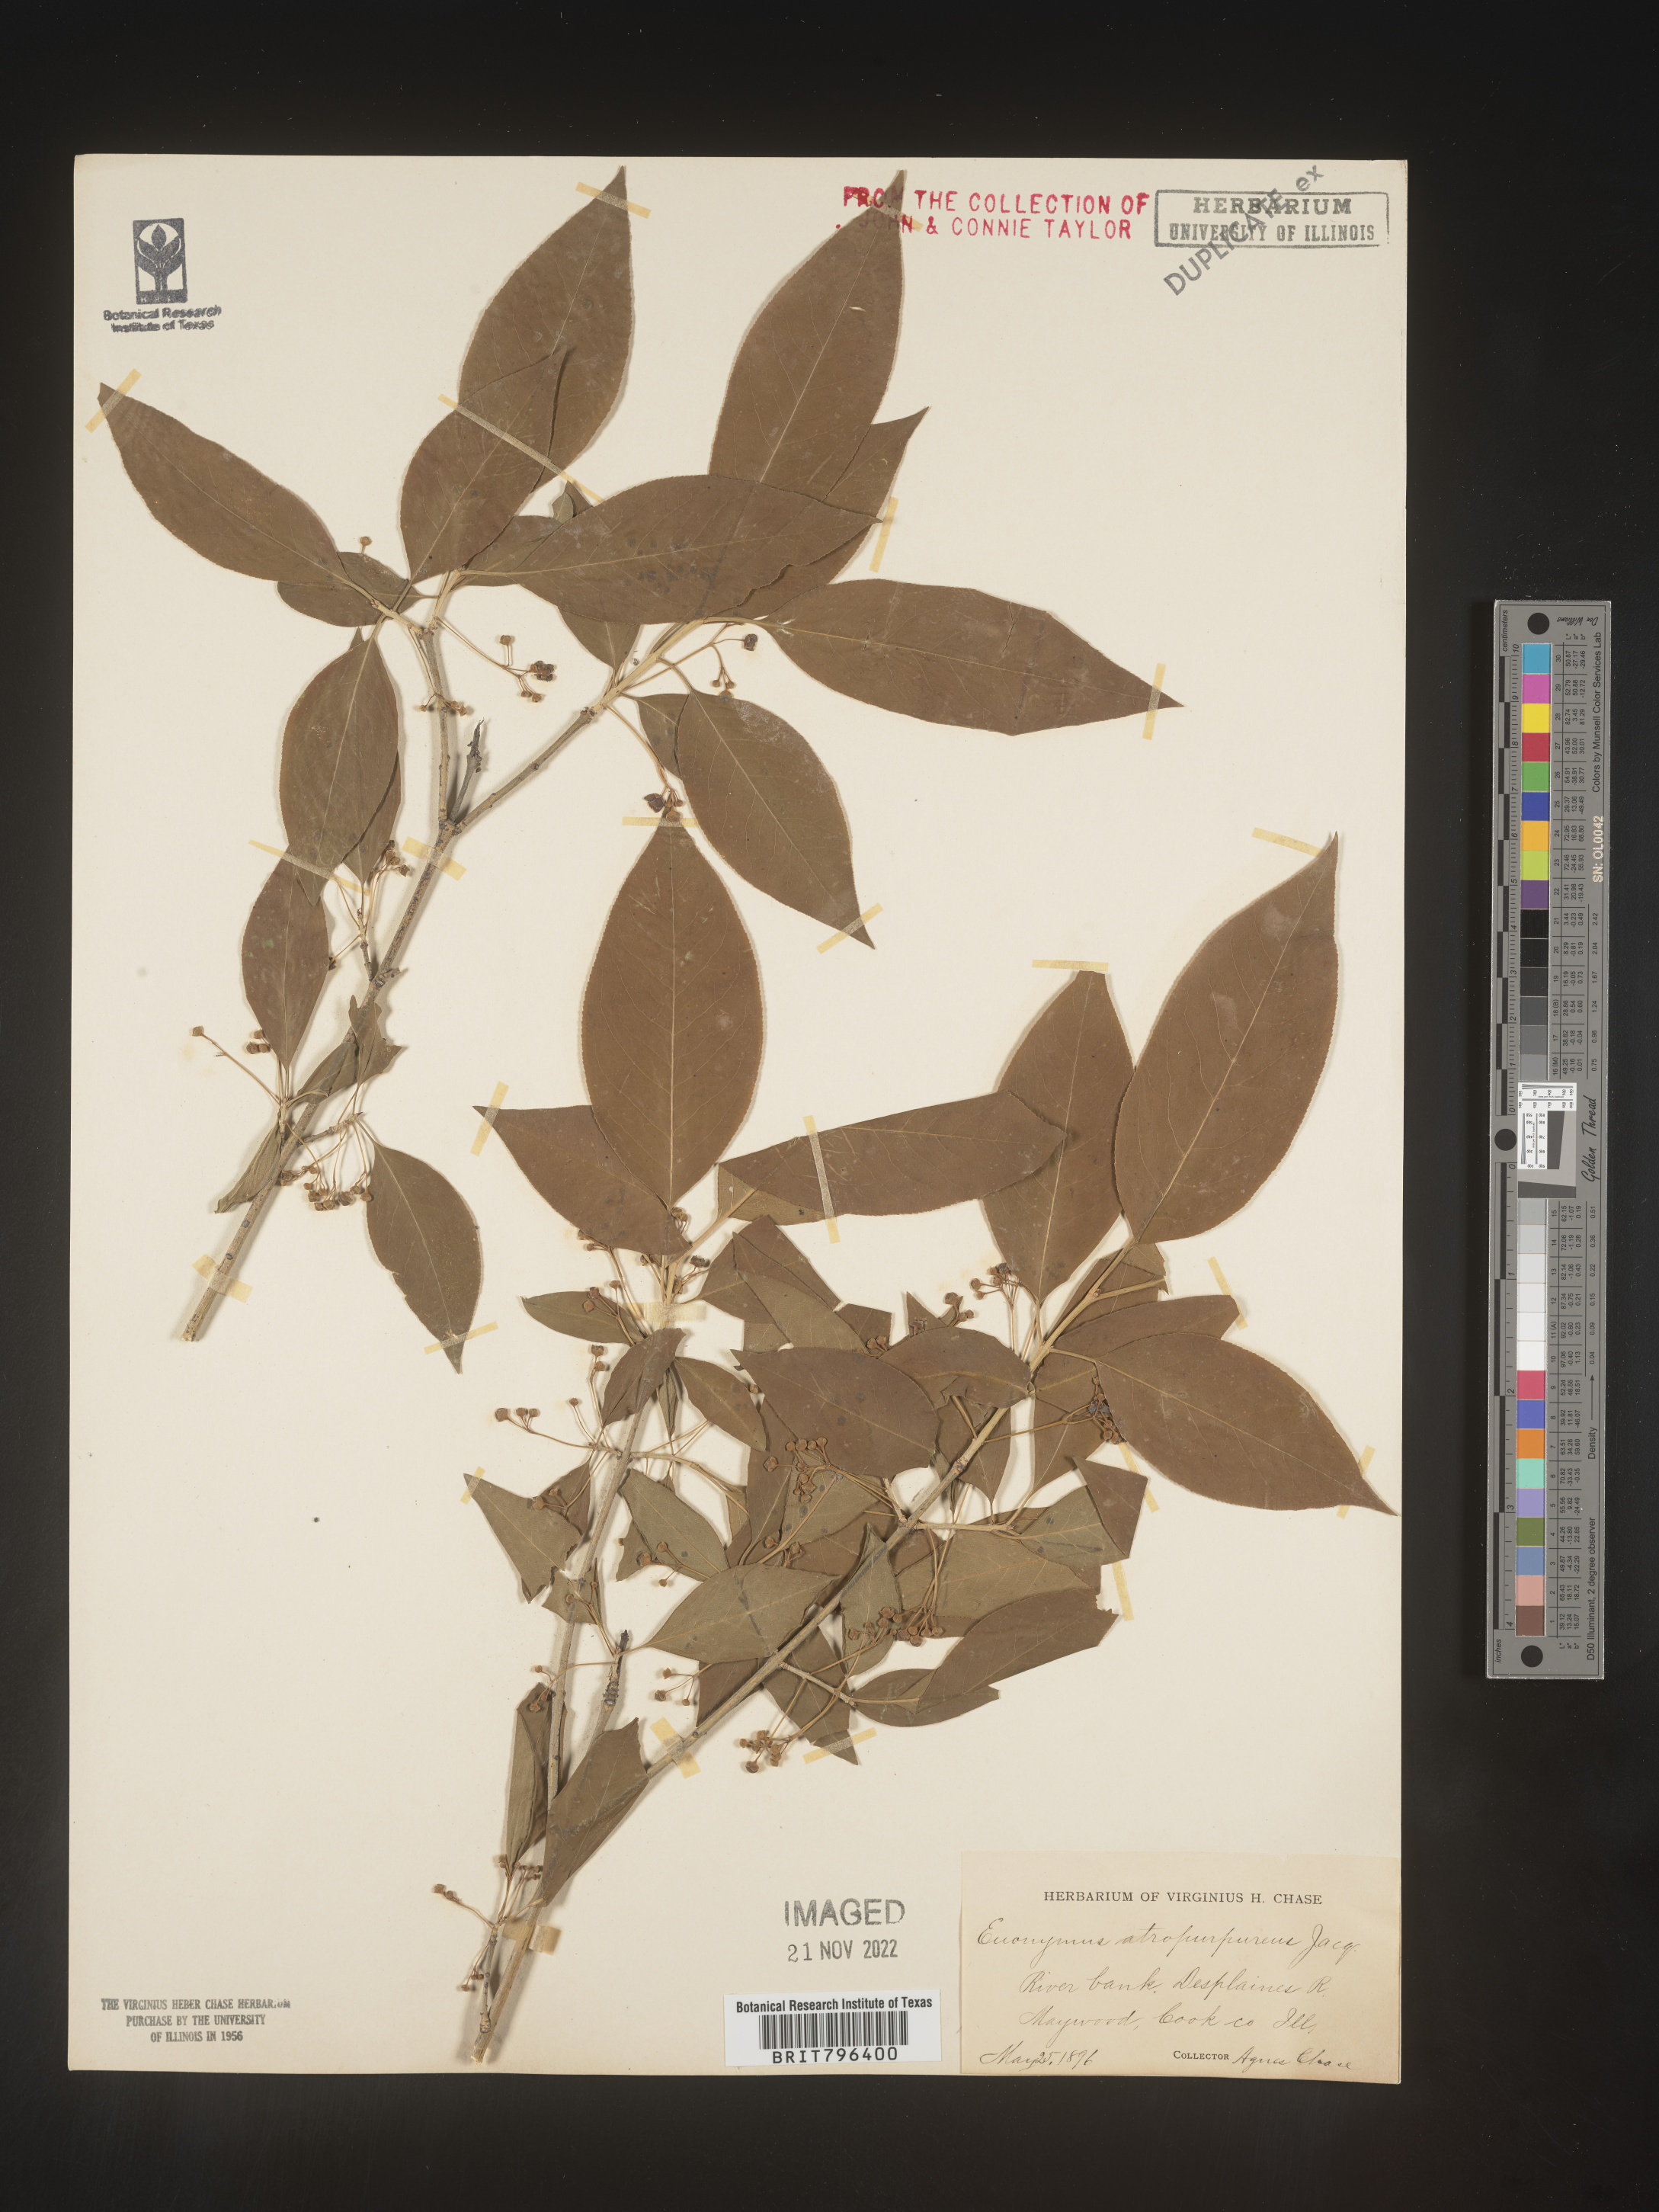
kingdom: Plantae
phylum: Tracheophyta
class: Magnoliopsida
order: Celastrales
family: Celastraceae
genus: Euonymus
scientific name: Euonymus atropurpureus
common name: Eastern wahoo
